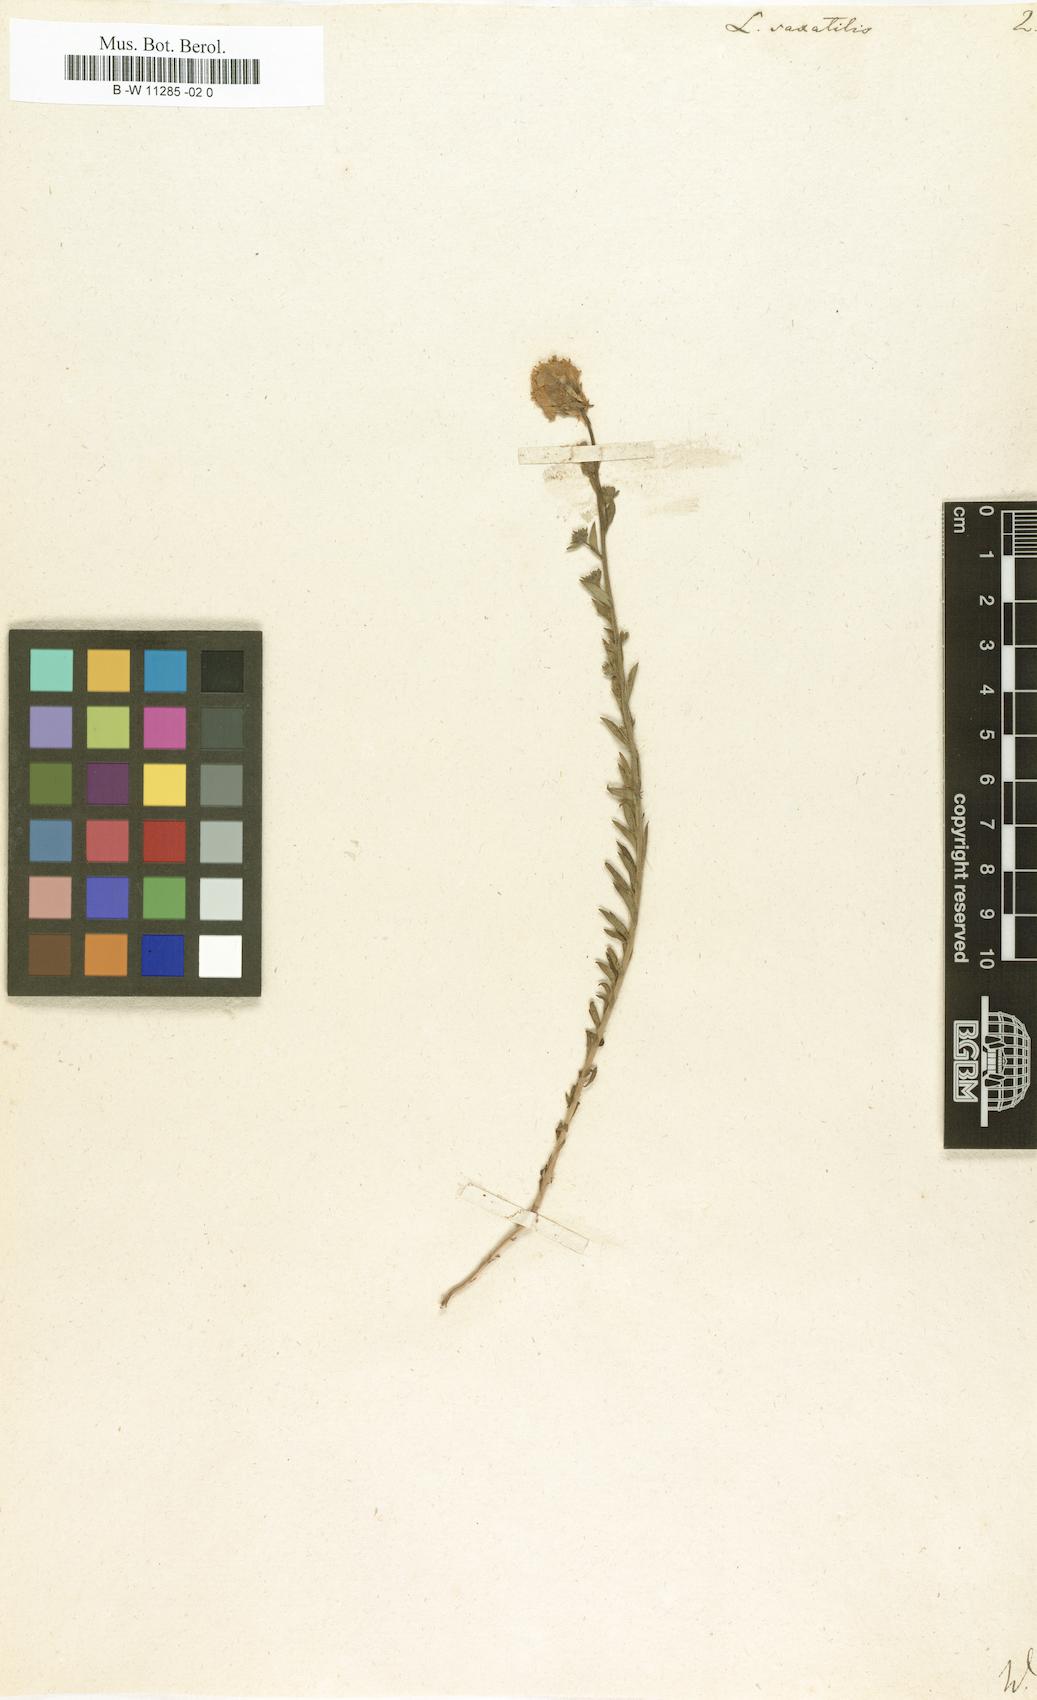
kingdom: Plantae
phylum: Tracheophyta
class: Magnoliopsida
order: Lamiales
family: Plantaginaceae
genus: Linaria
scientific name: Linaria saxatilis
